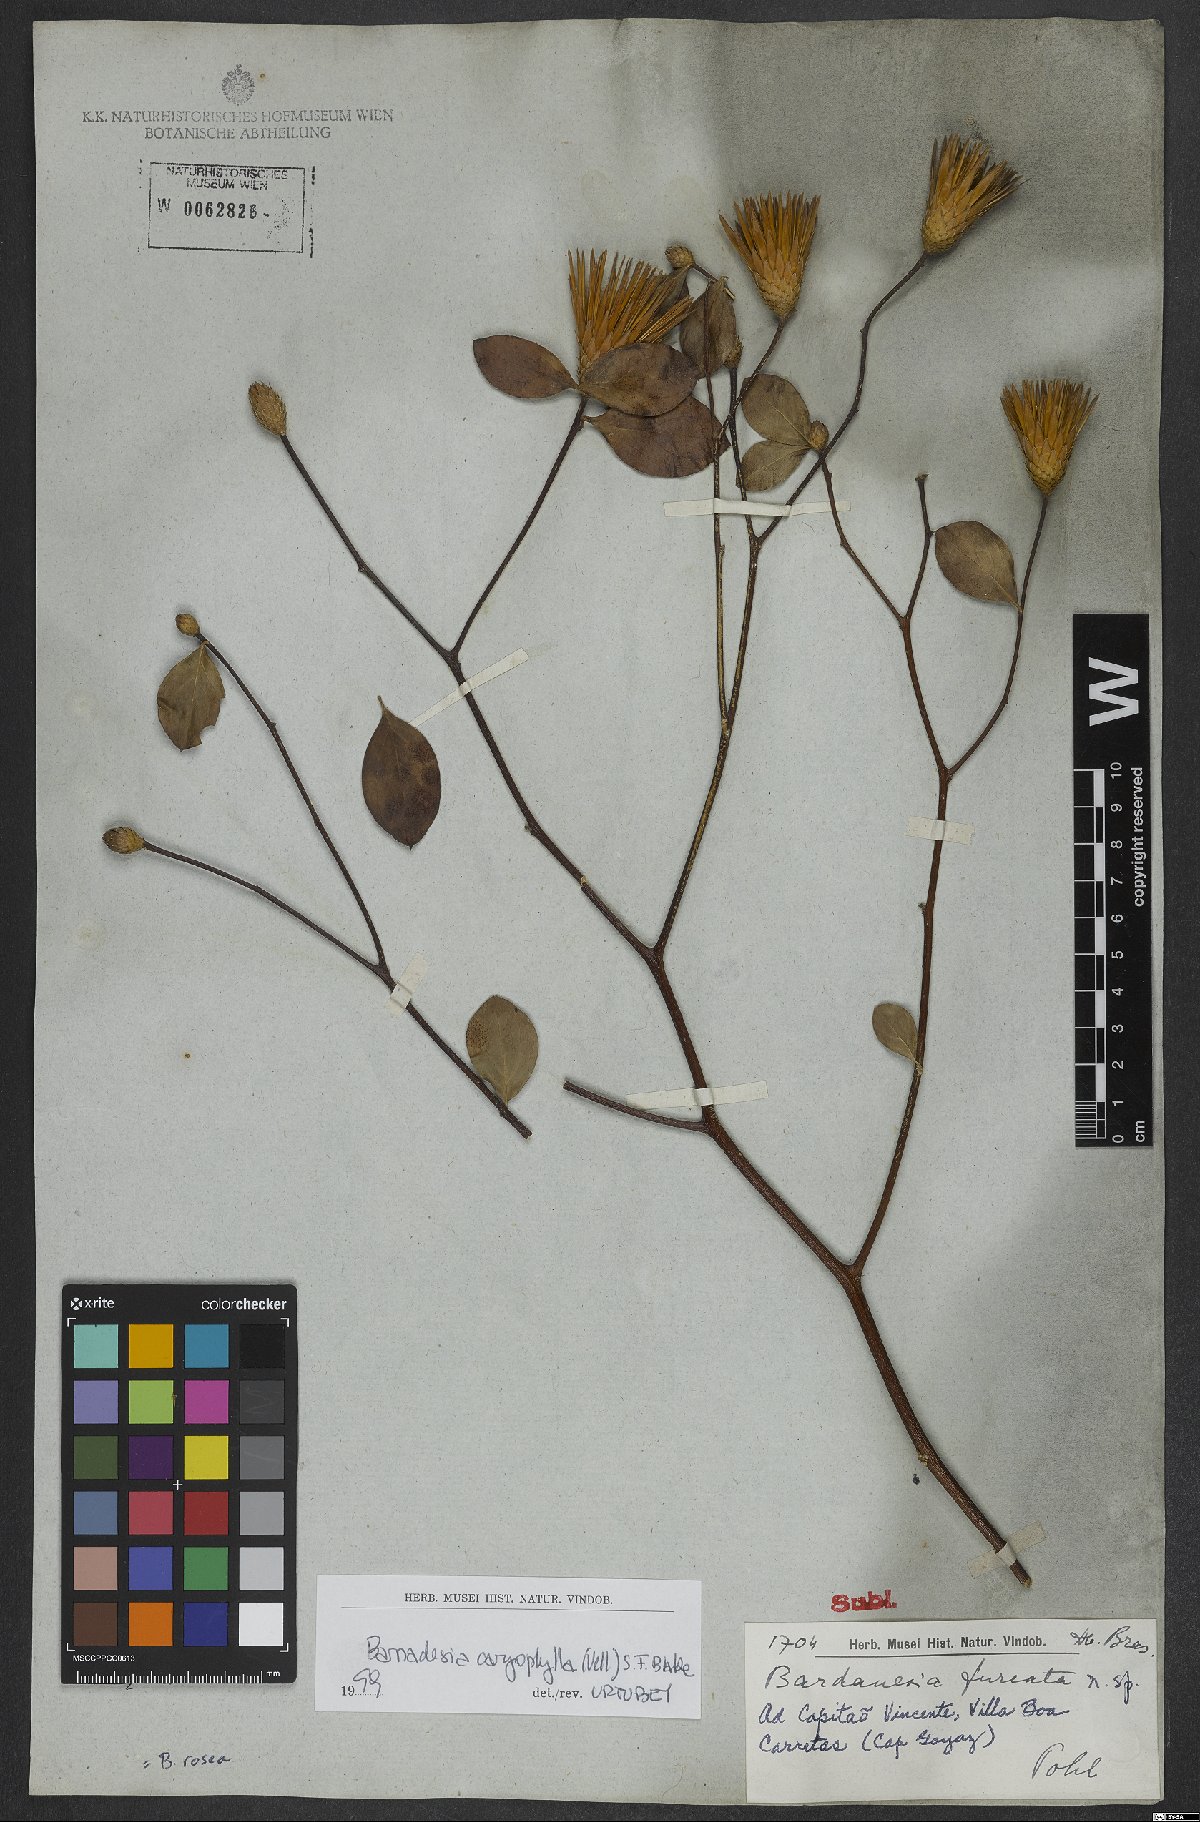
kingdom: Plantae
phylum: Tracheophyta
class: Magnoliopsida
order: Asterales
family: Asteraceae
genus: Barnadesia
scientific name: Barnadesia caryophylla
